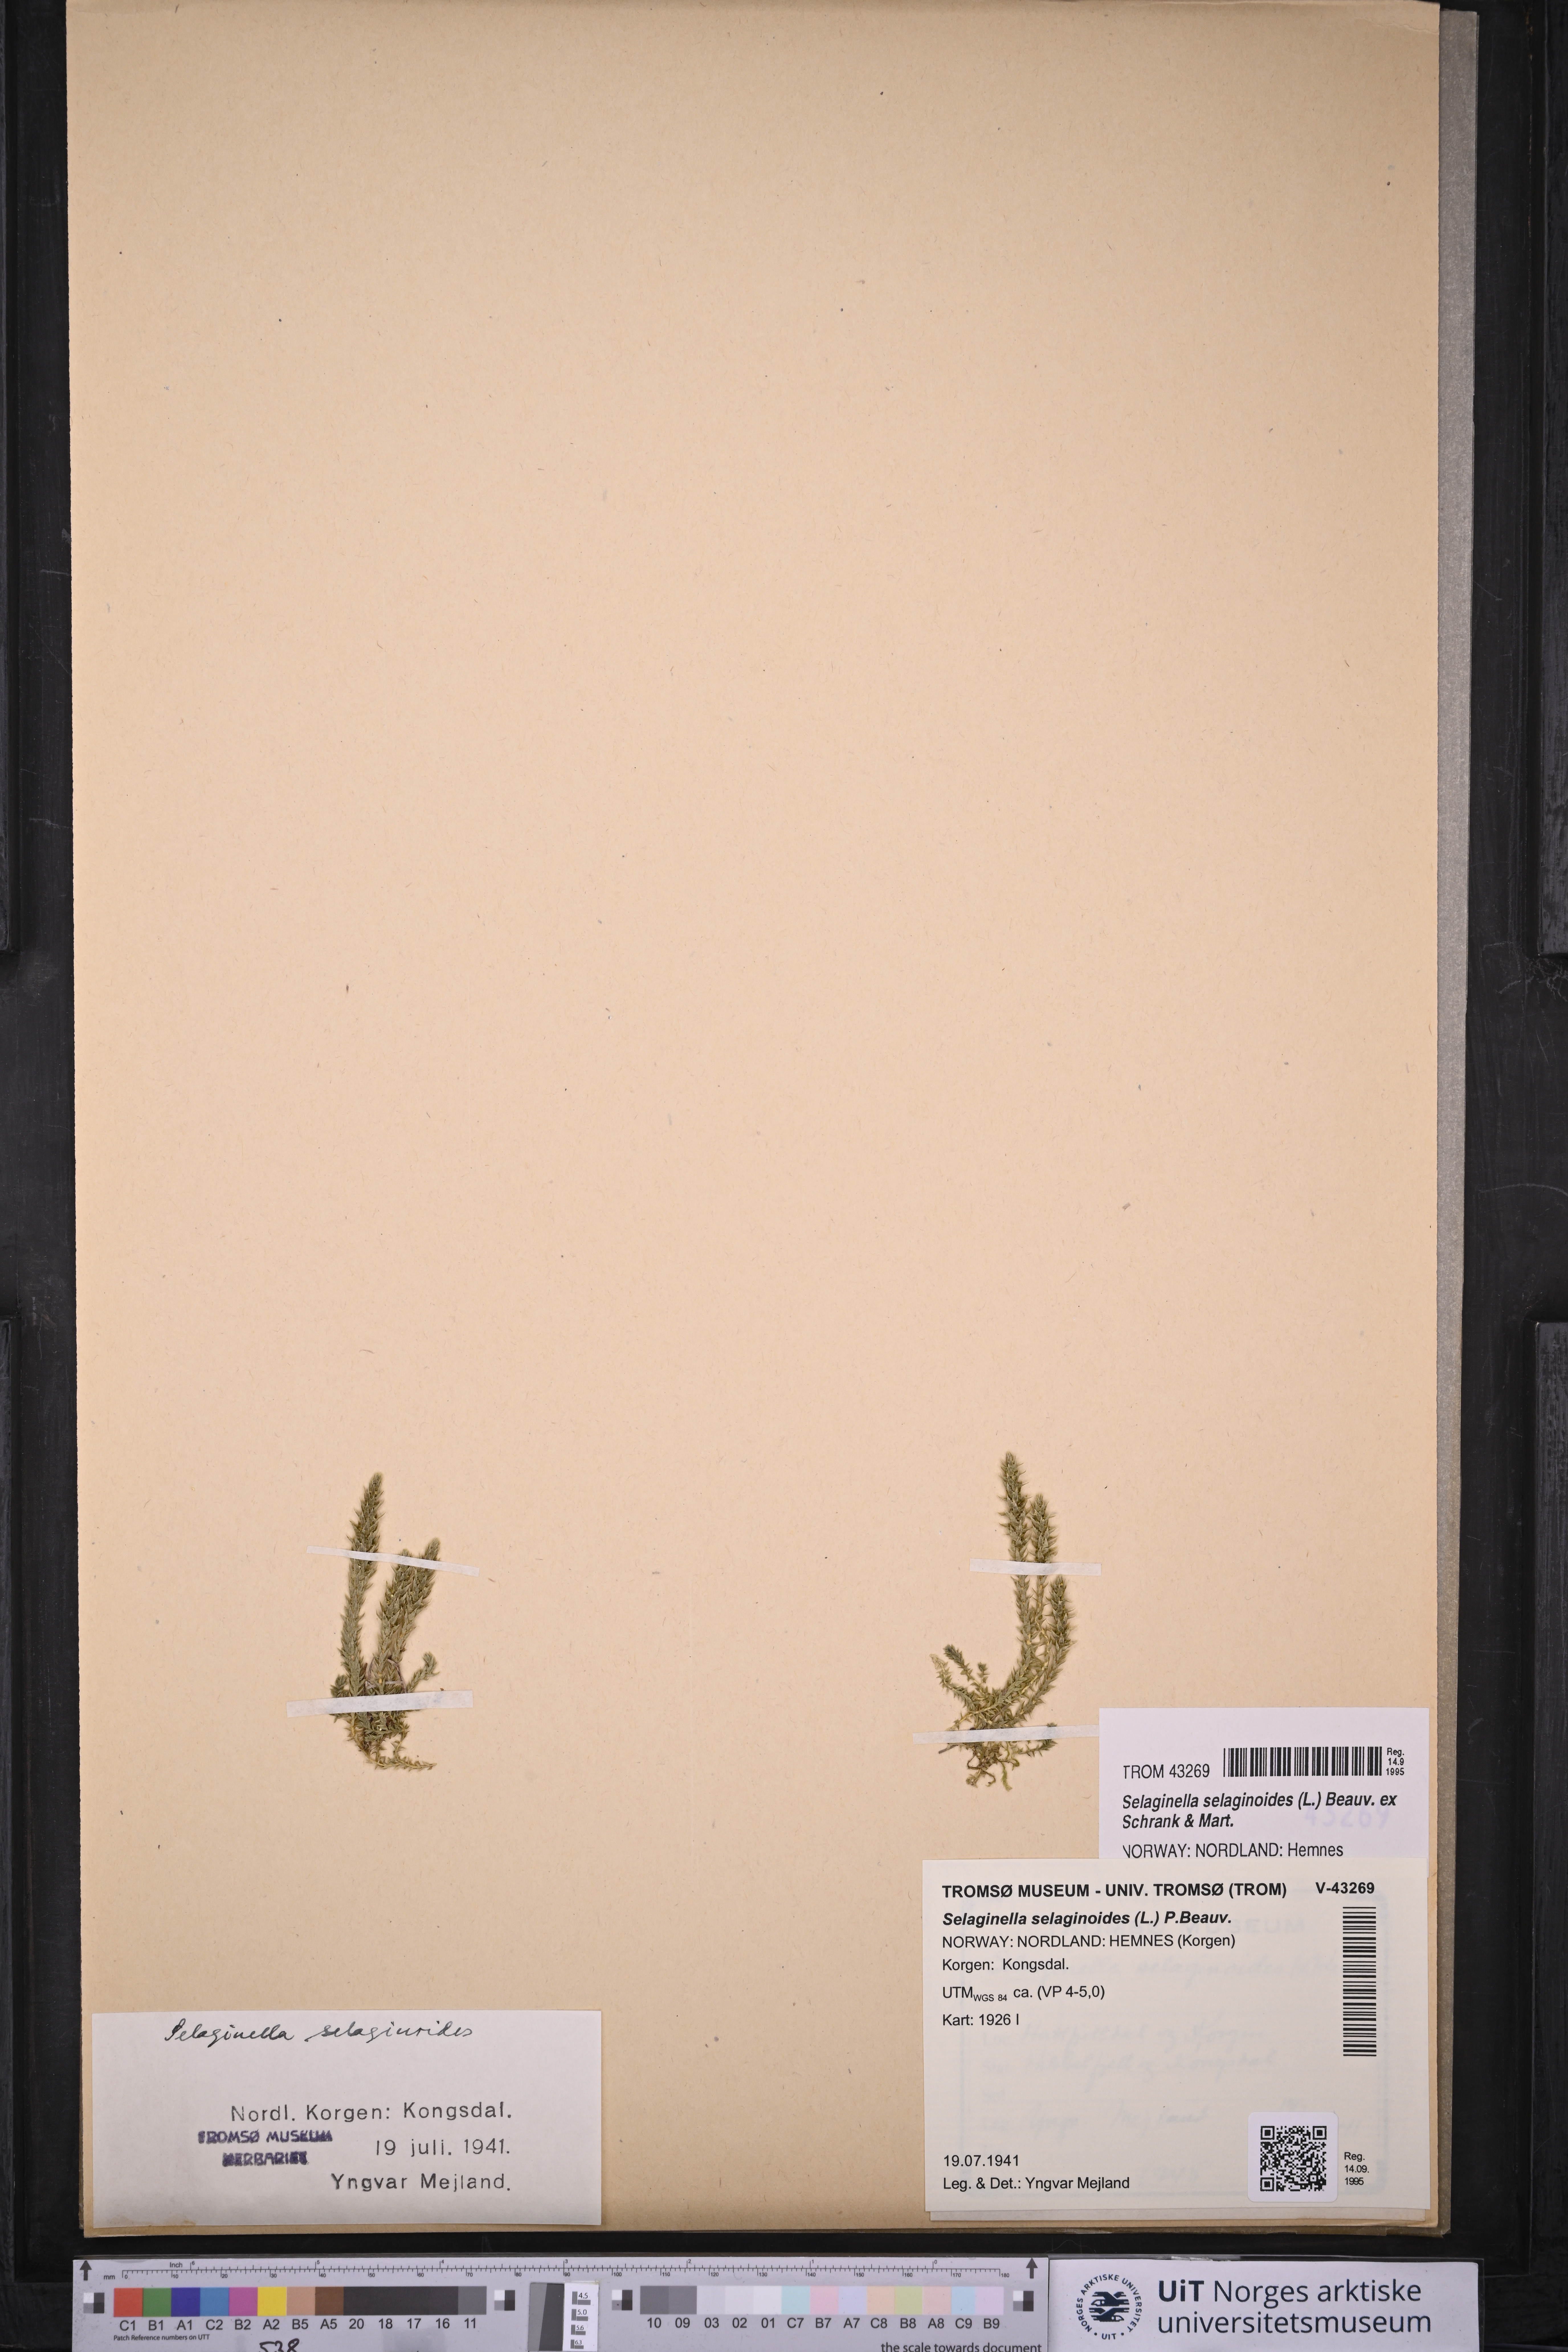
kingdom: Plantae
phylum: Tracheophyta
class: Lycopodiopsida
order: Selaginellales
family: Selaginellaceae
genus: Selaginella
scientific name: Selaginella selaginoides
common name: Prickly mountain-moss
